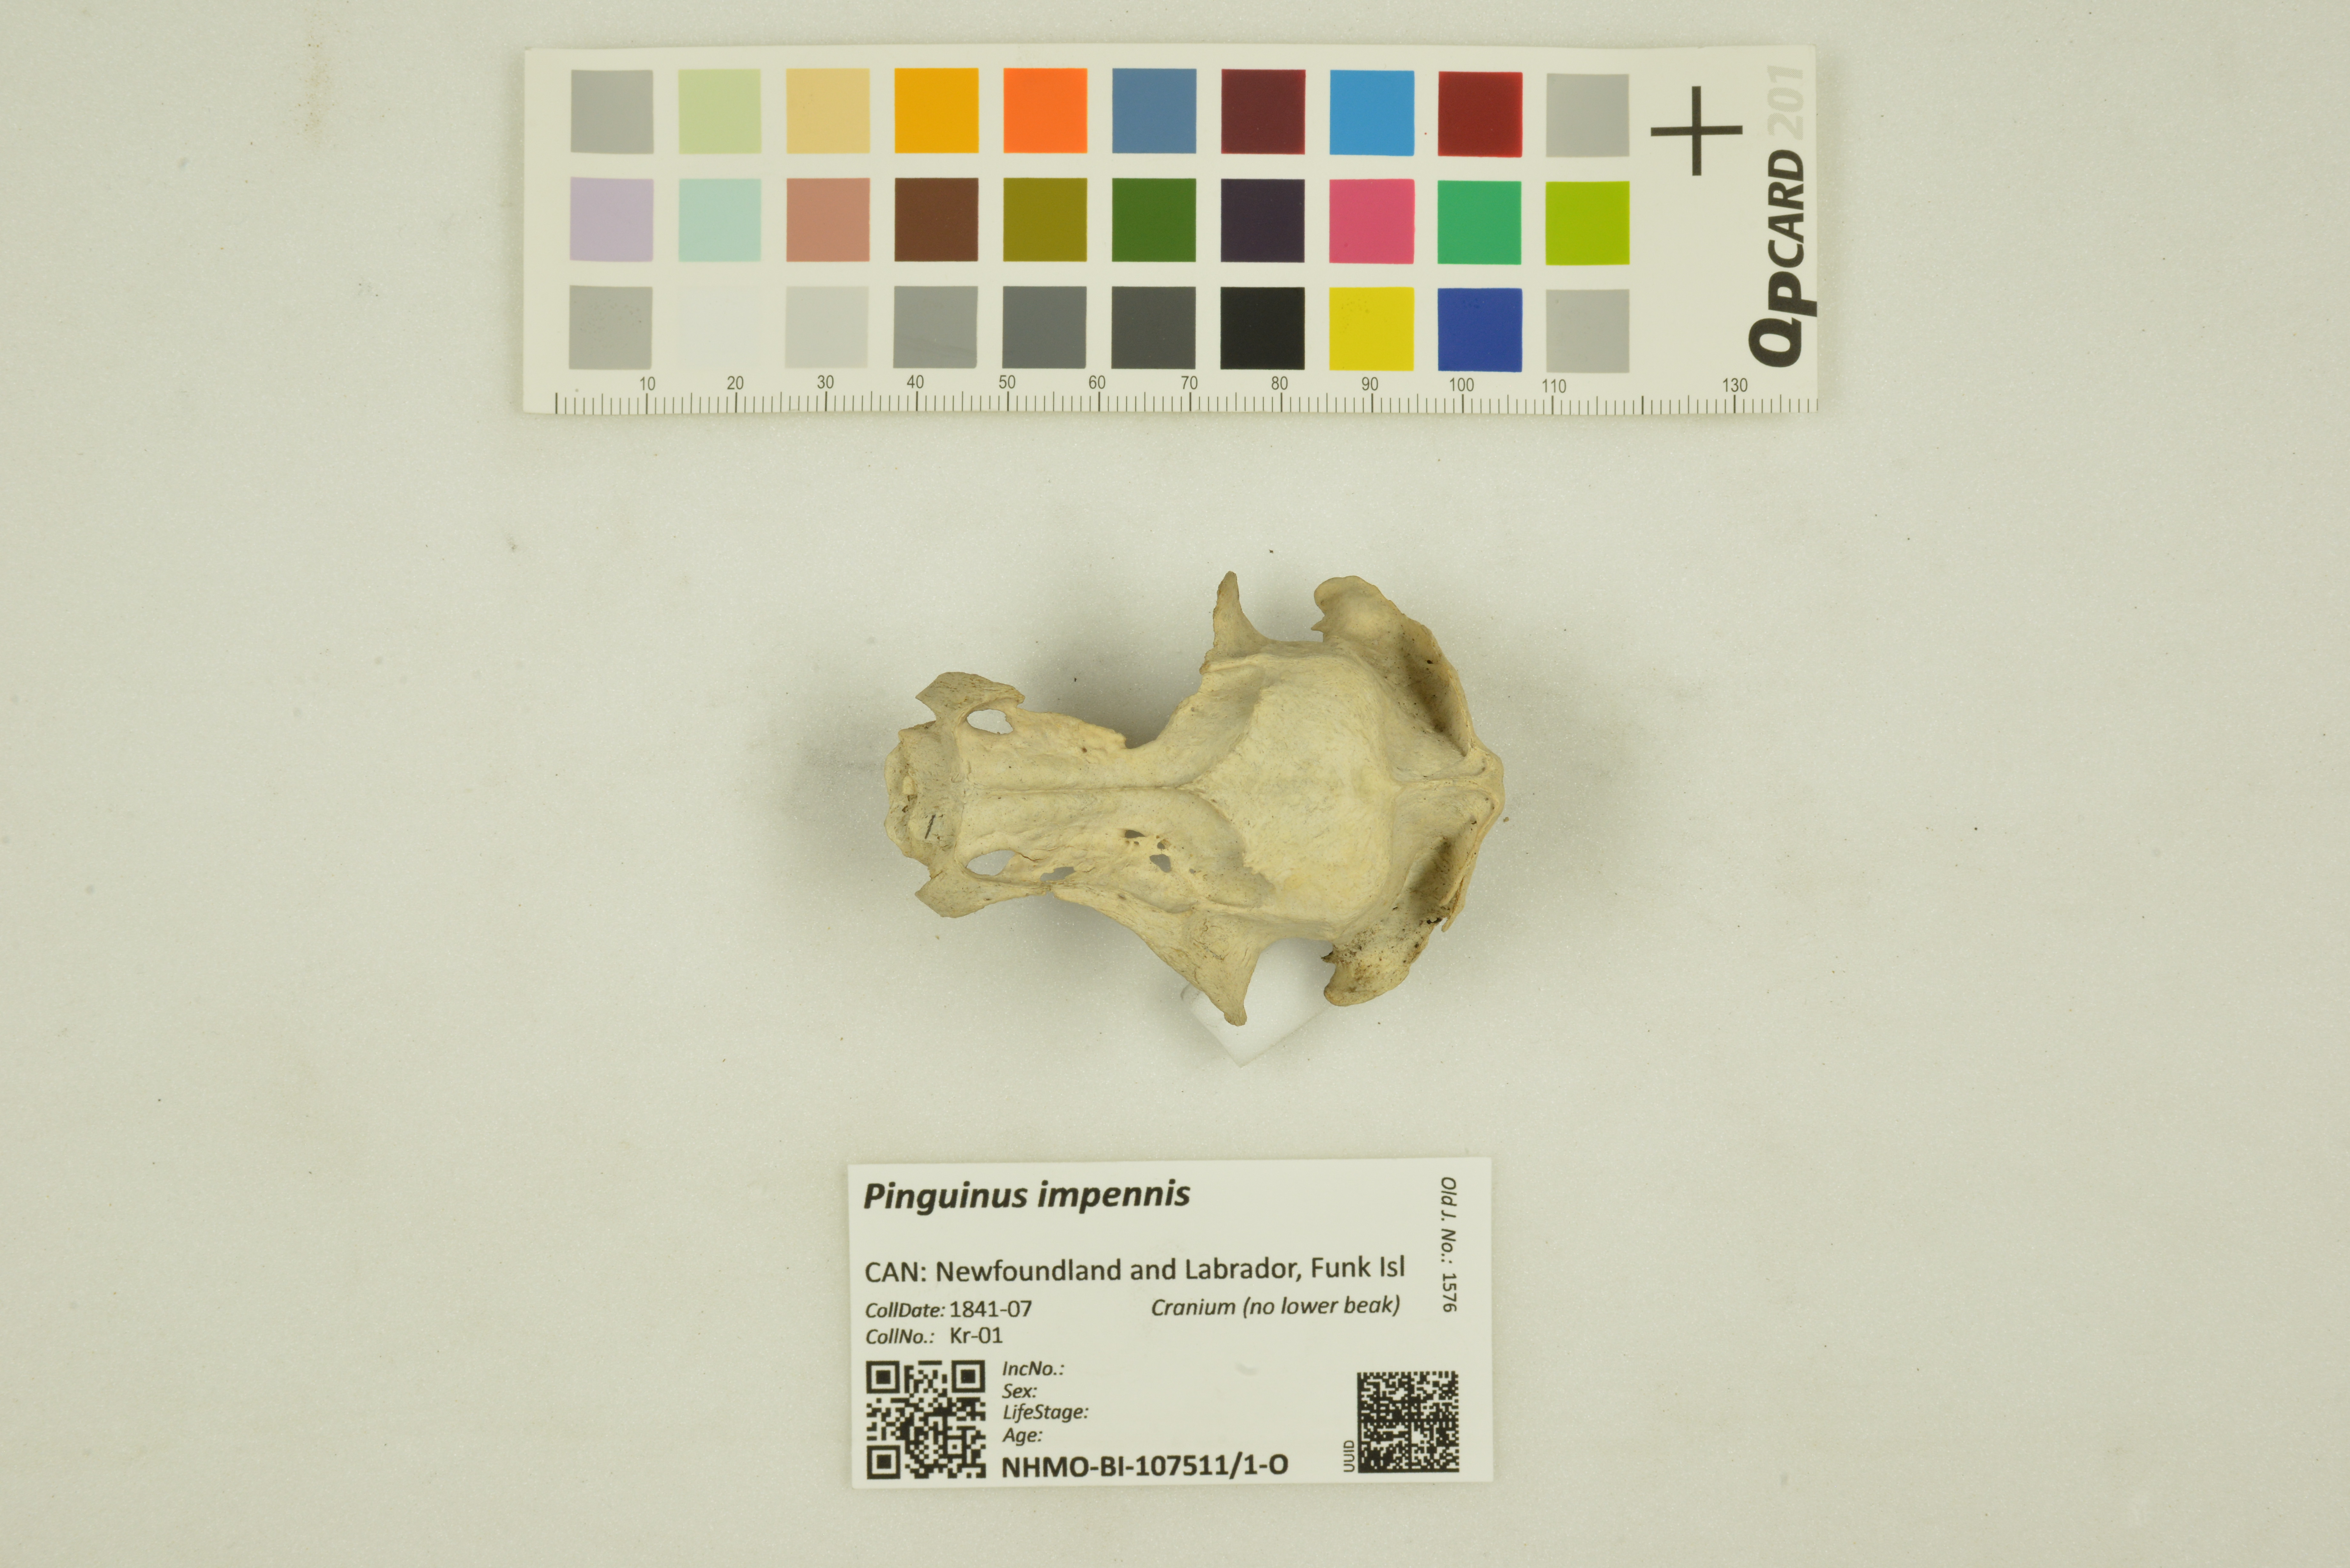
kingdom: Animalia
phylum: Chordata
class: Aves
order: Charadriiformes
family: Alcidae
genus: Pinguinus
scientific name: Pinguinus impennis
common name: Great auk
